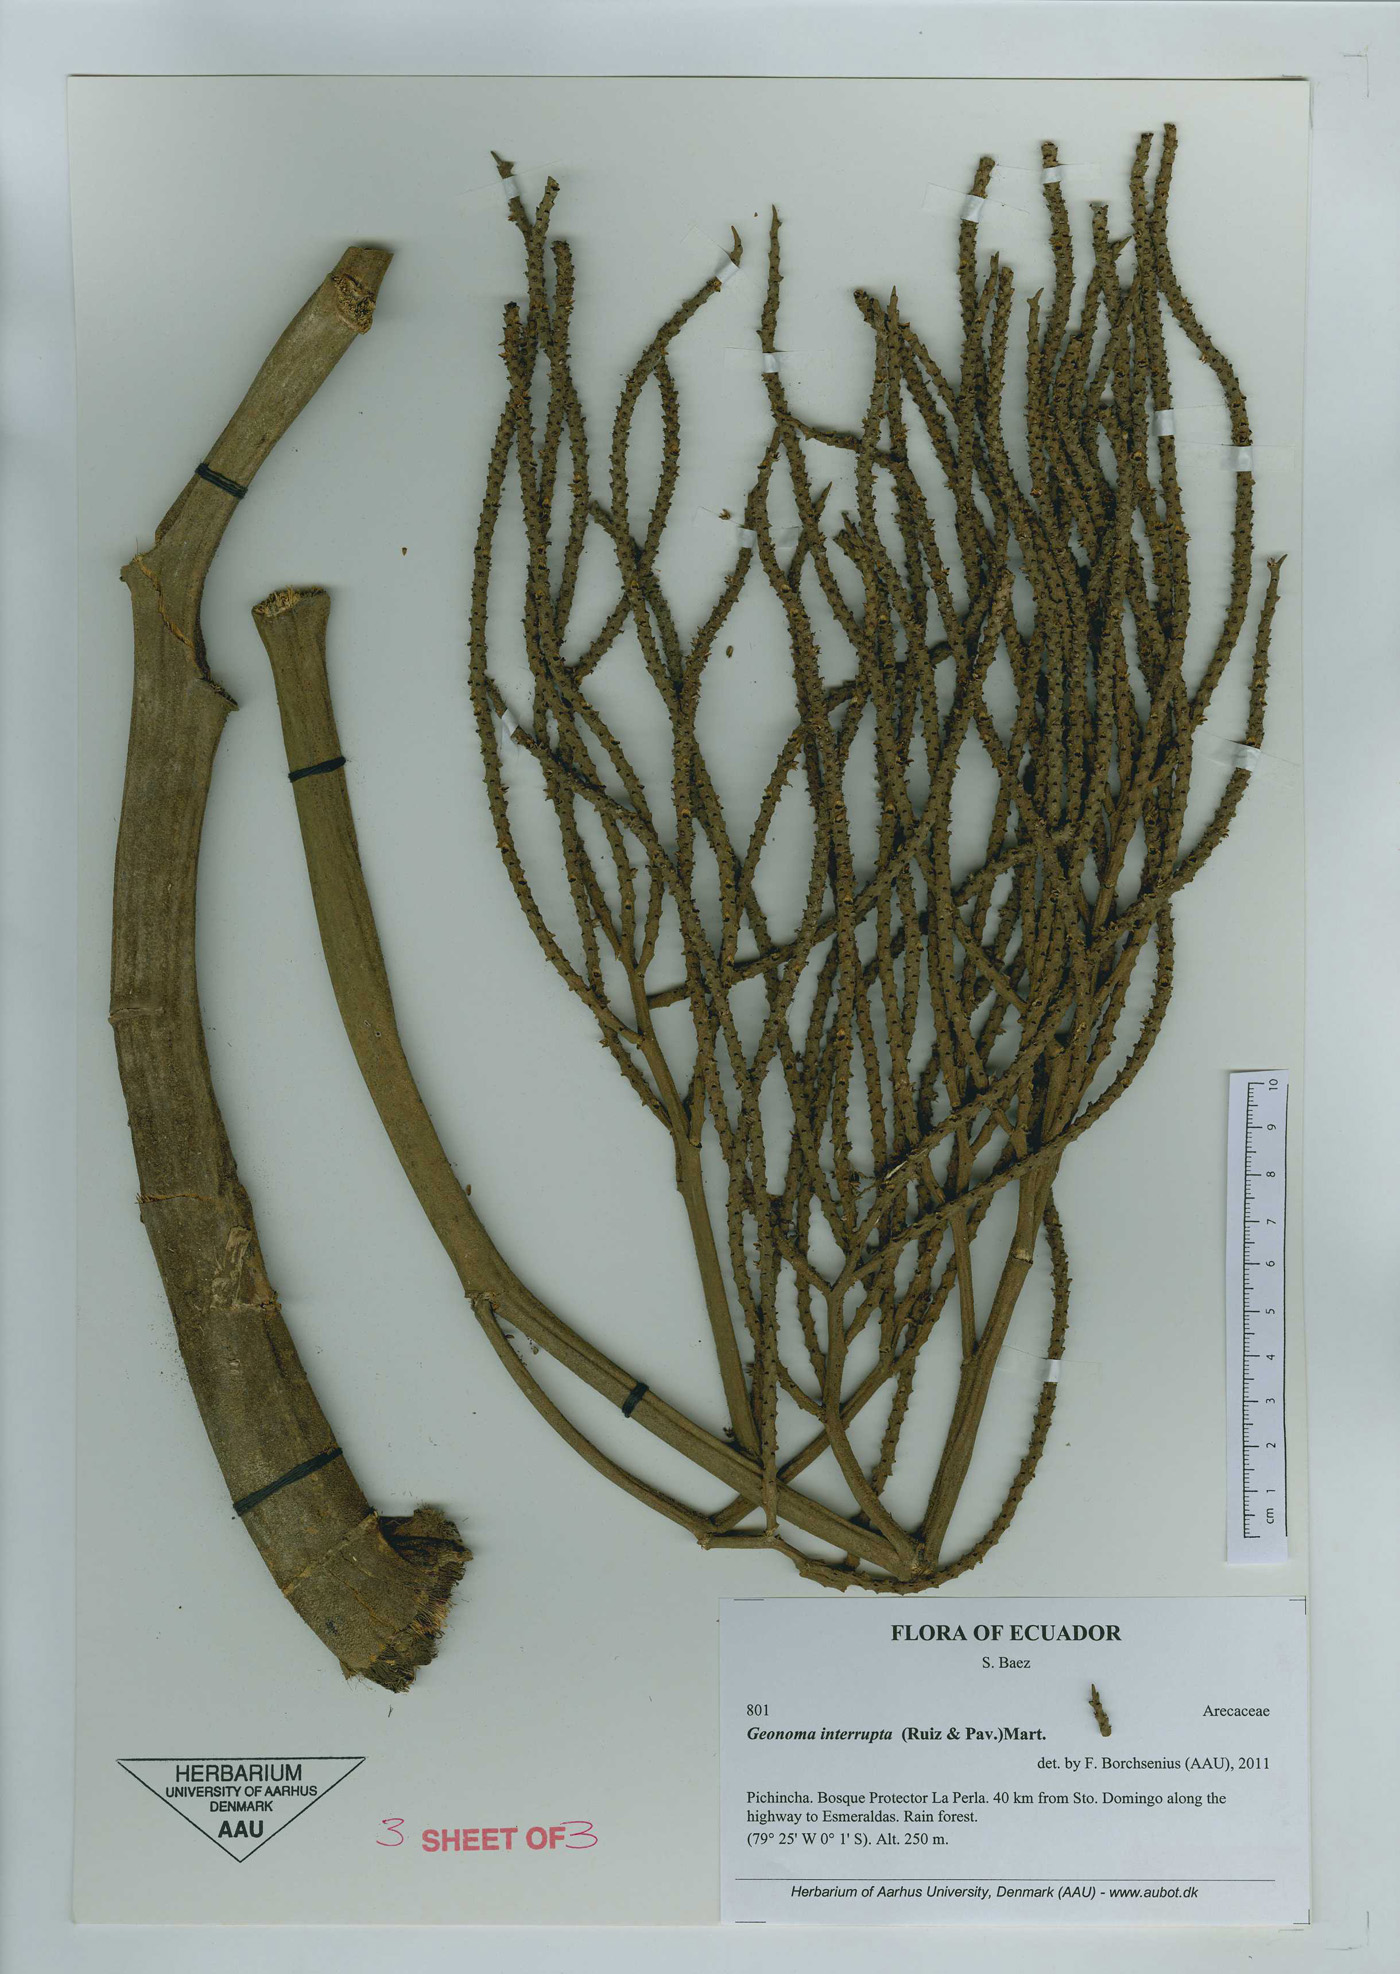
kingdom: Plantae
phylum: Tracheophyta
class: Liliopsida
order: Arecales
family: Arecaceae
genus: Geonoma
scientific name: Geonoma interrupta
